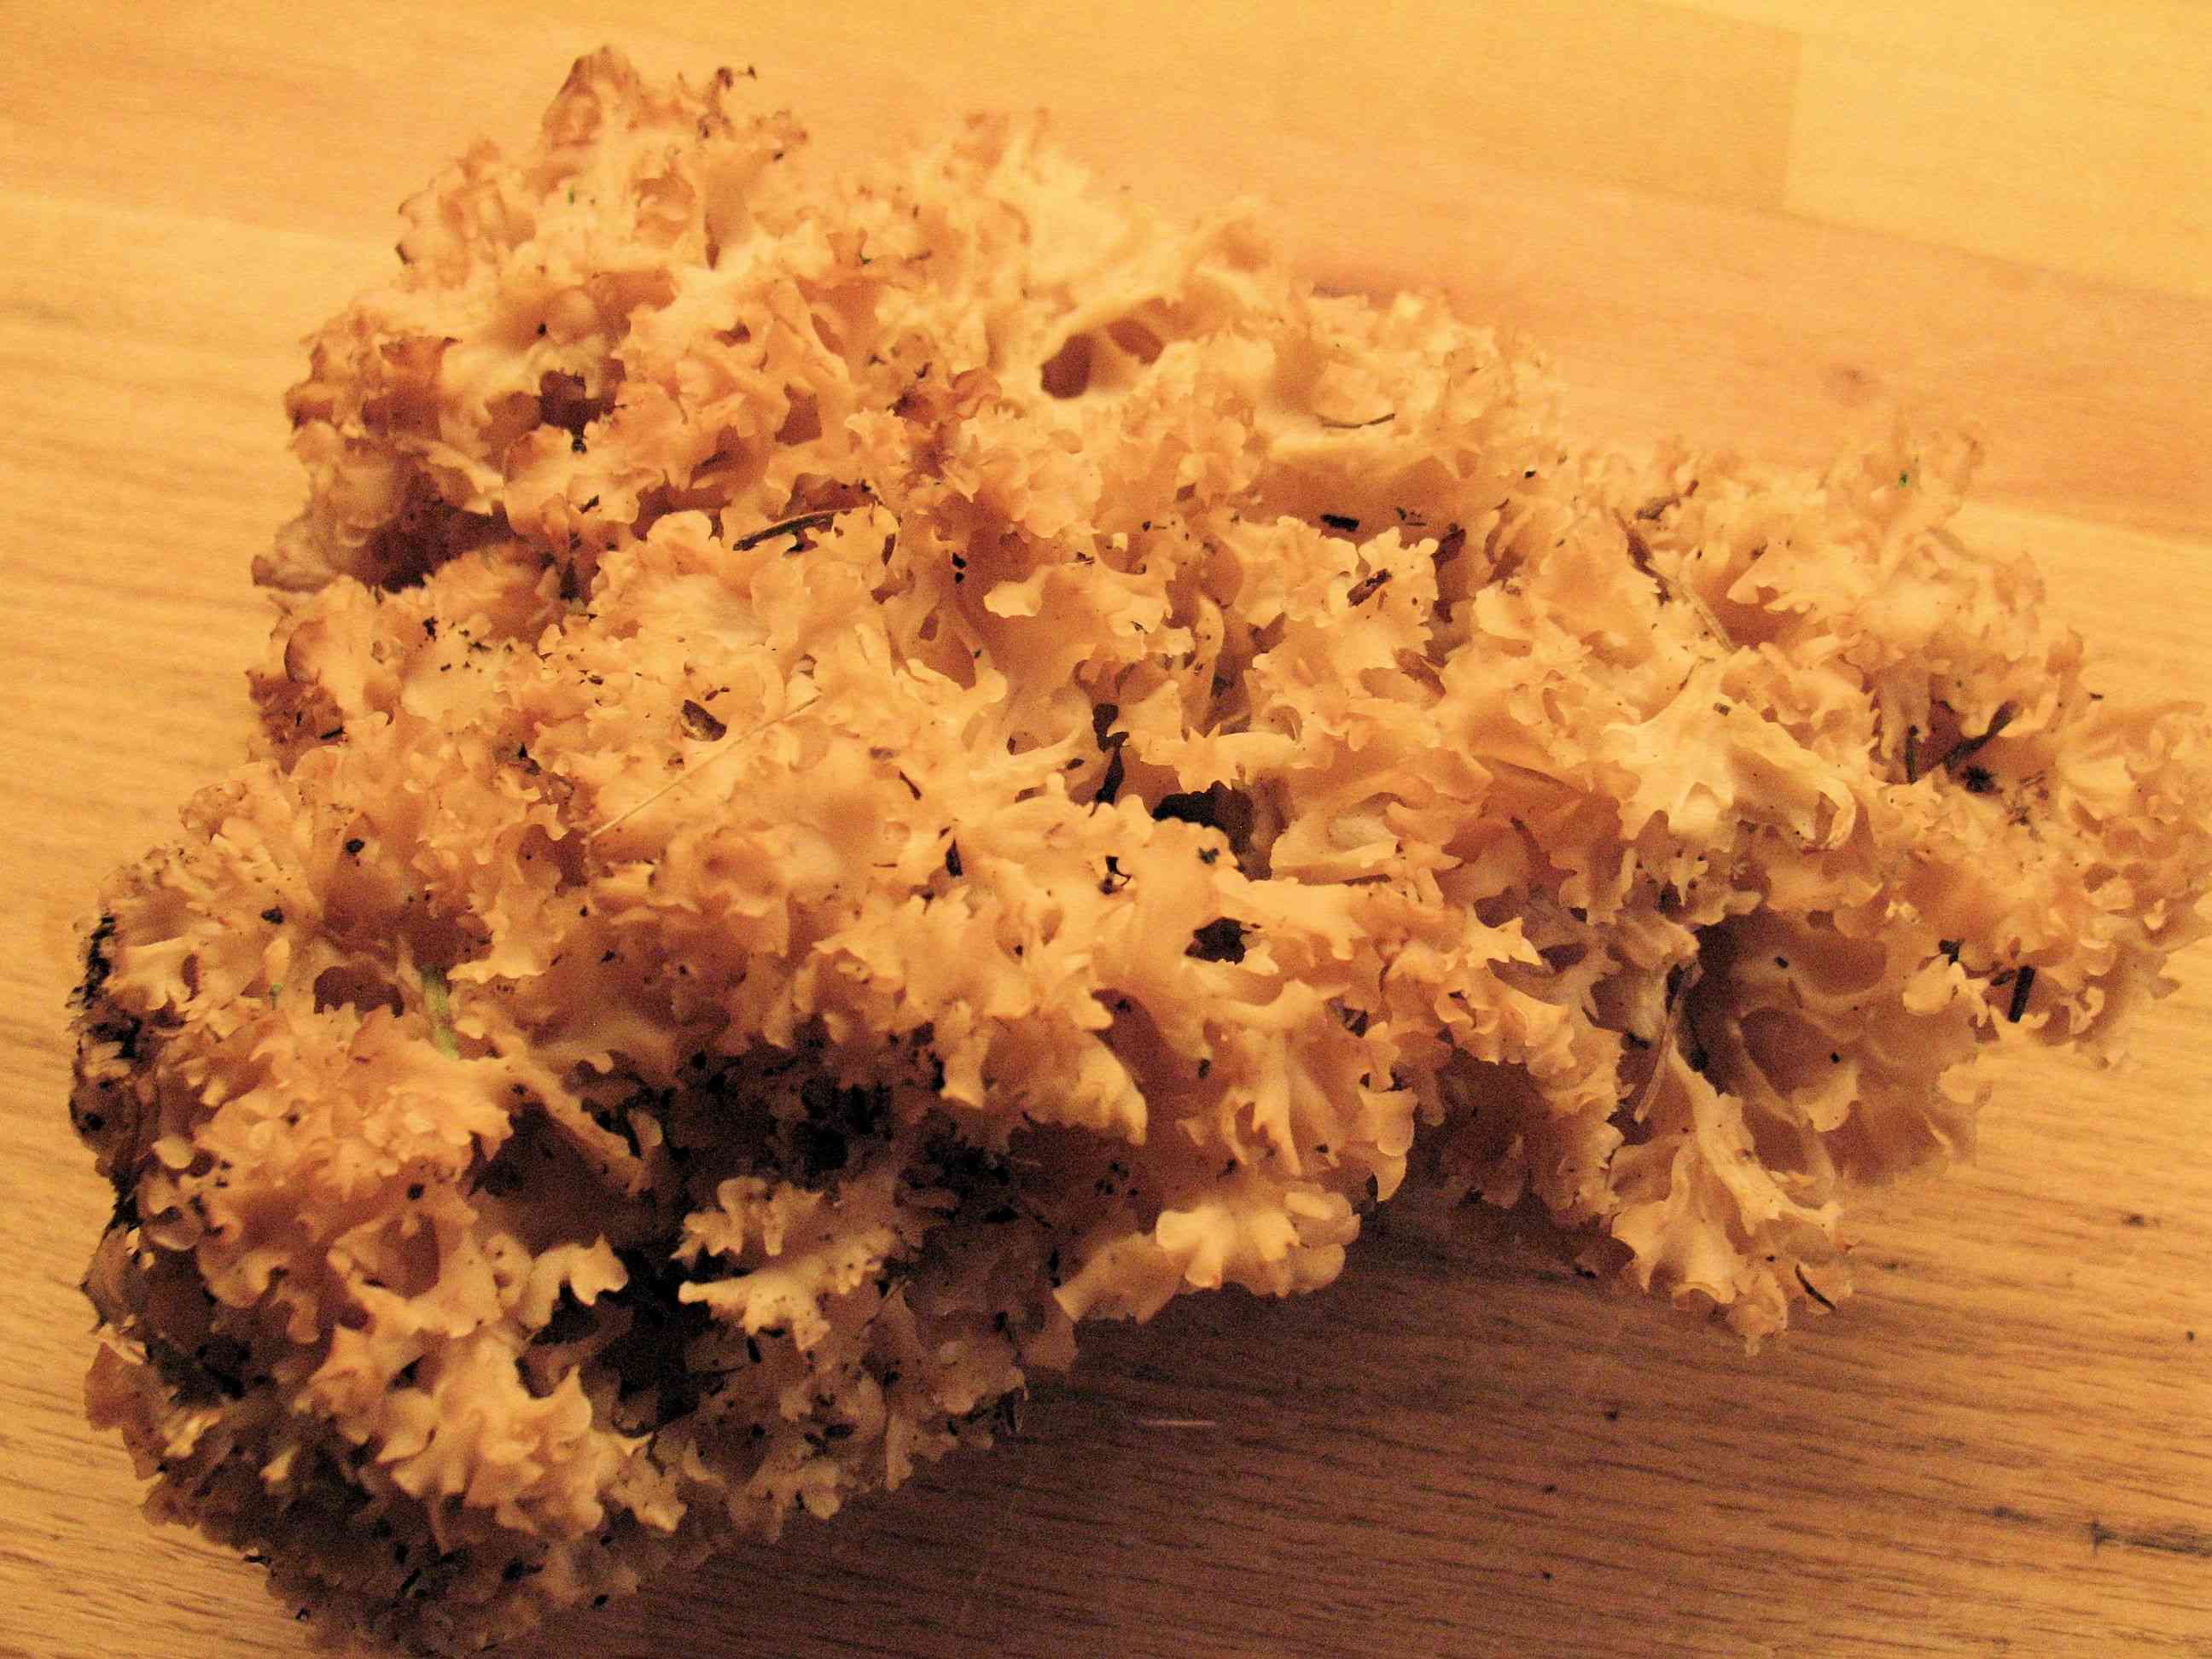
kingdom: Fungi
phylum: Basidiomycota
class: Agaricomycetes
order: Polyporales
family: Sparassidaceae
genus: Sparassis
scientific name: Sparassis crispa
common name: kruset blomkålssvamp
